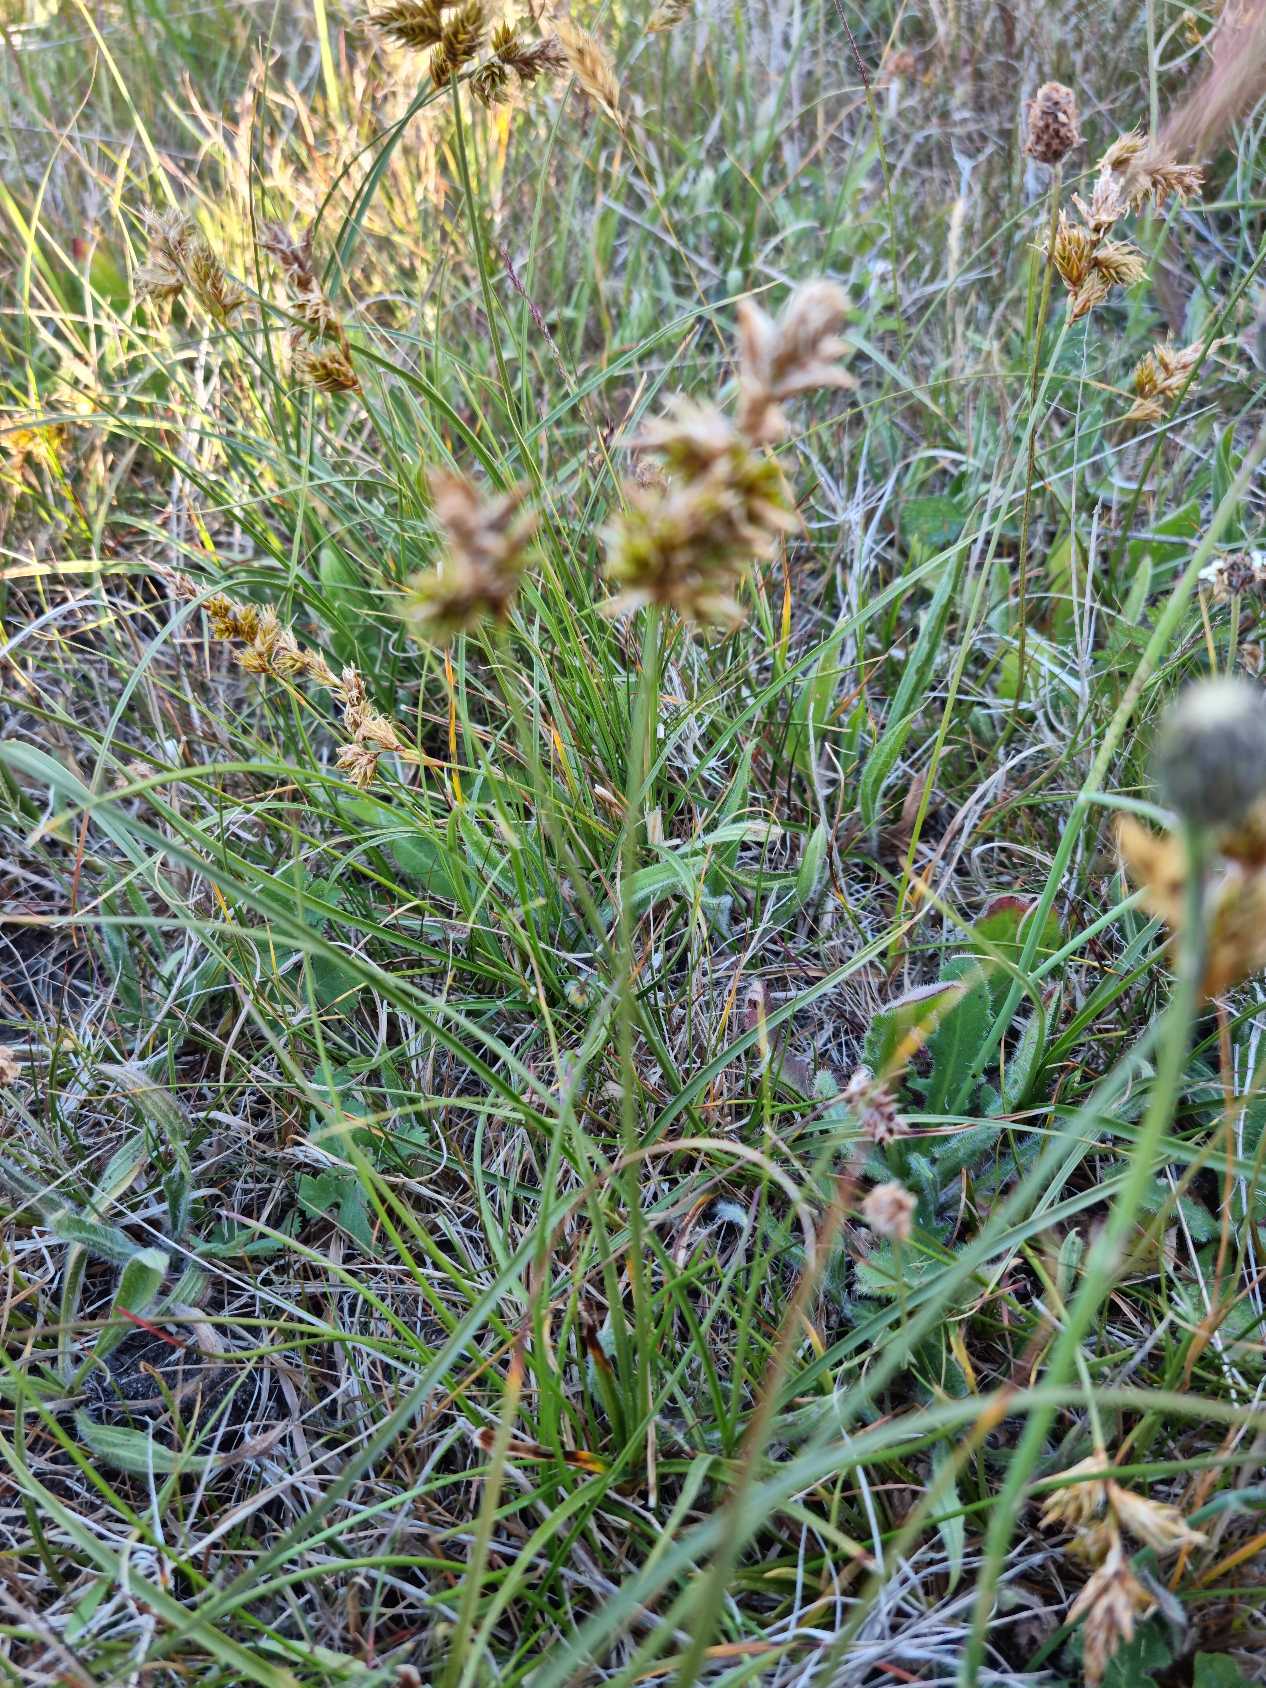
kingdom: Plantae
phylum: Tracheophyta
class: Liliopsida
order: Poales
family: Cyperaceae
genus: Carex
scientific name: Carex arenaria
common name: Sand-star
